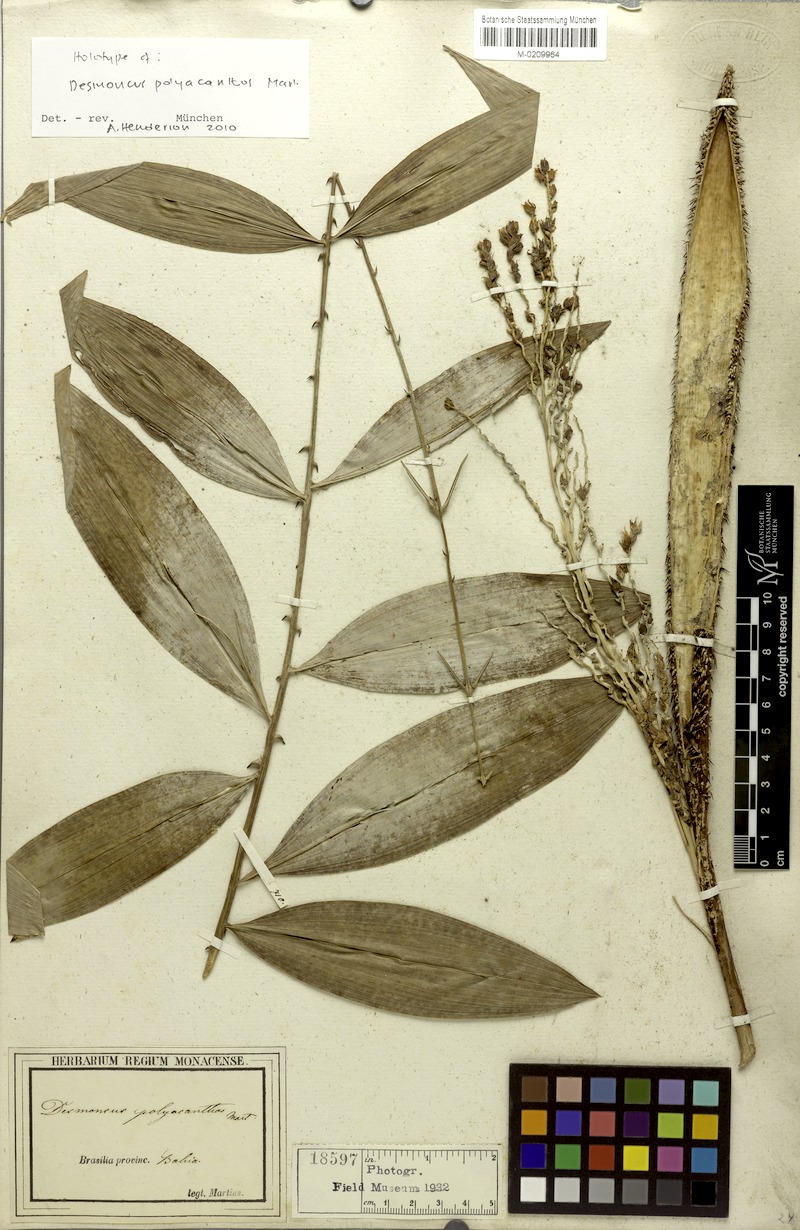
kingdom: Plantae
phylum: Tracheophyta
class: Liliopsida
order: Arecales
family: Arecaceae
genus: Desmoncus
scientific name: Desmoncus polyacanthos
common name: Suriname bramble palm
